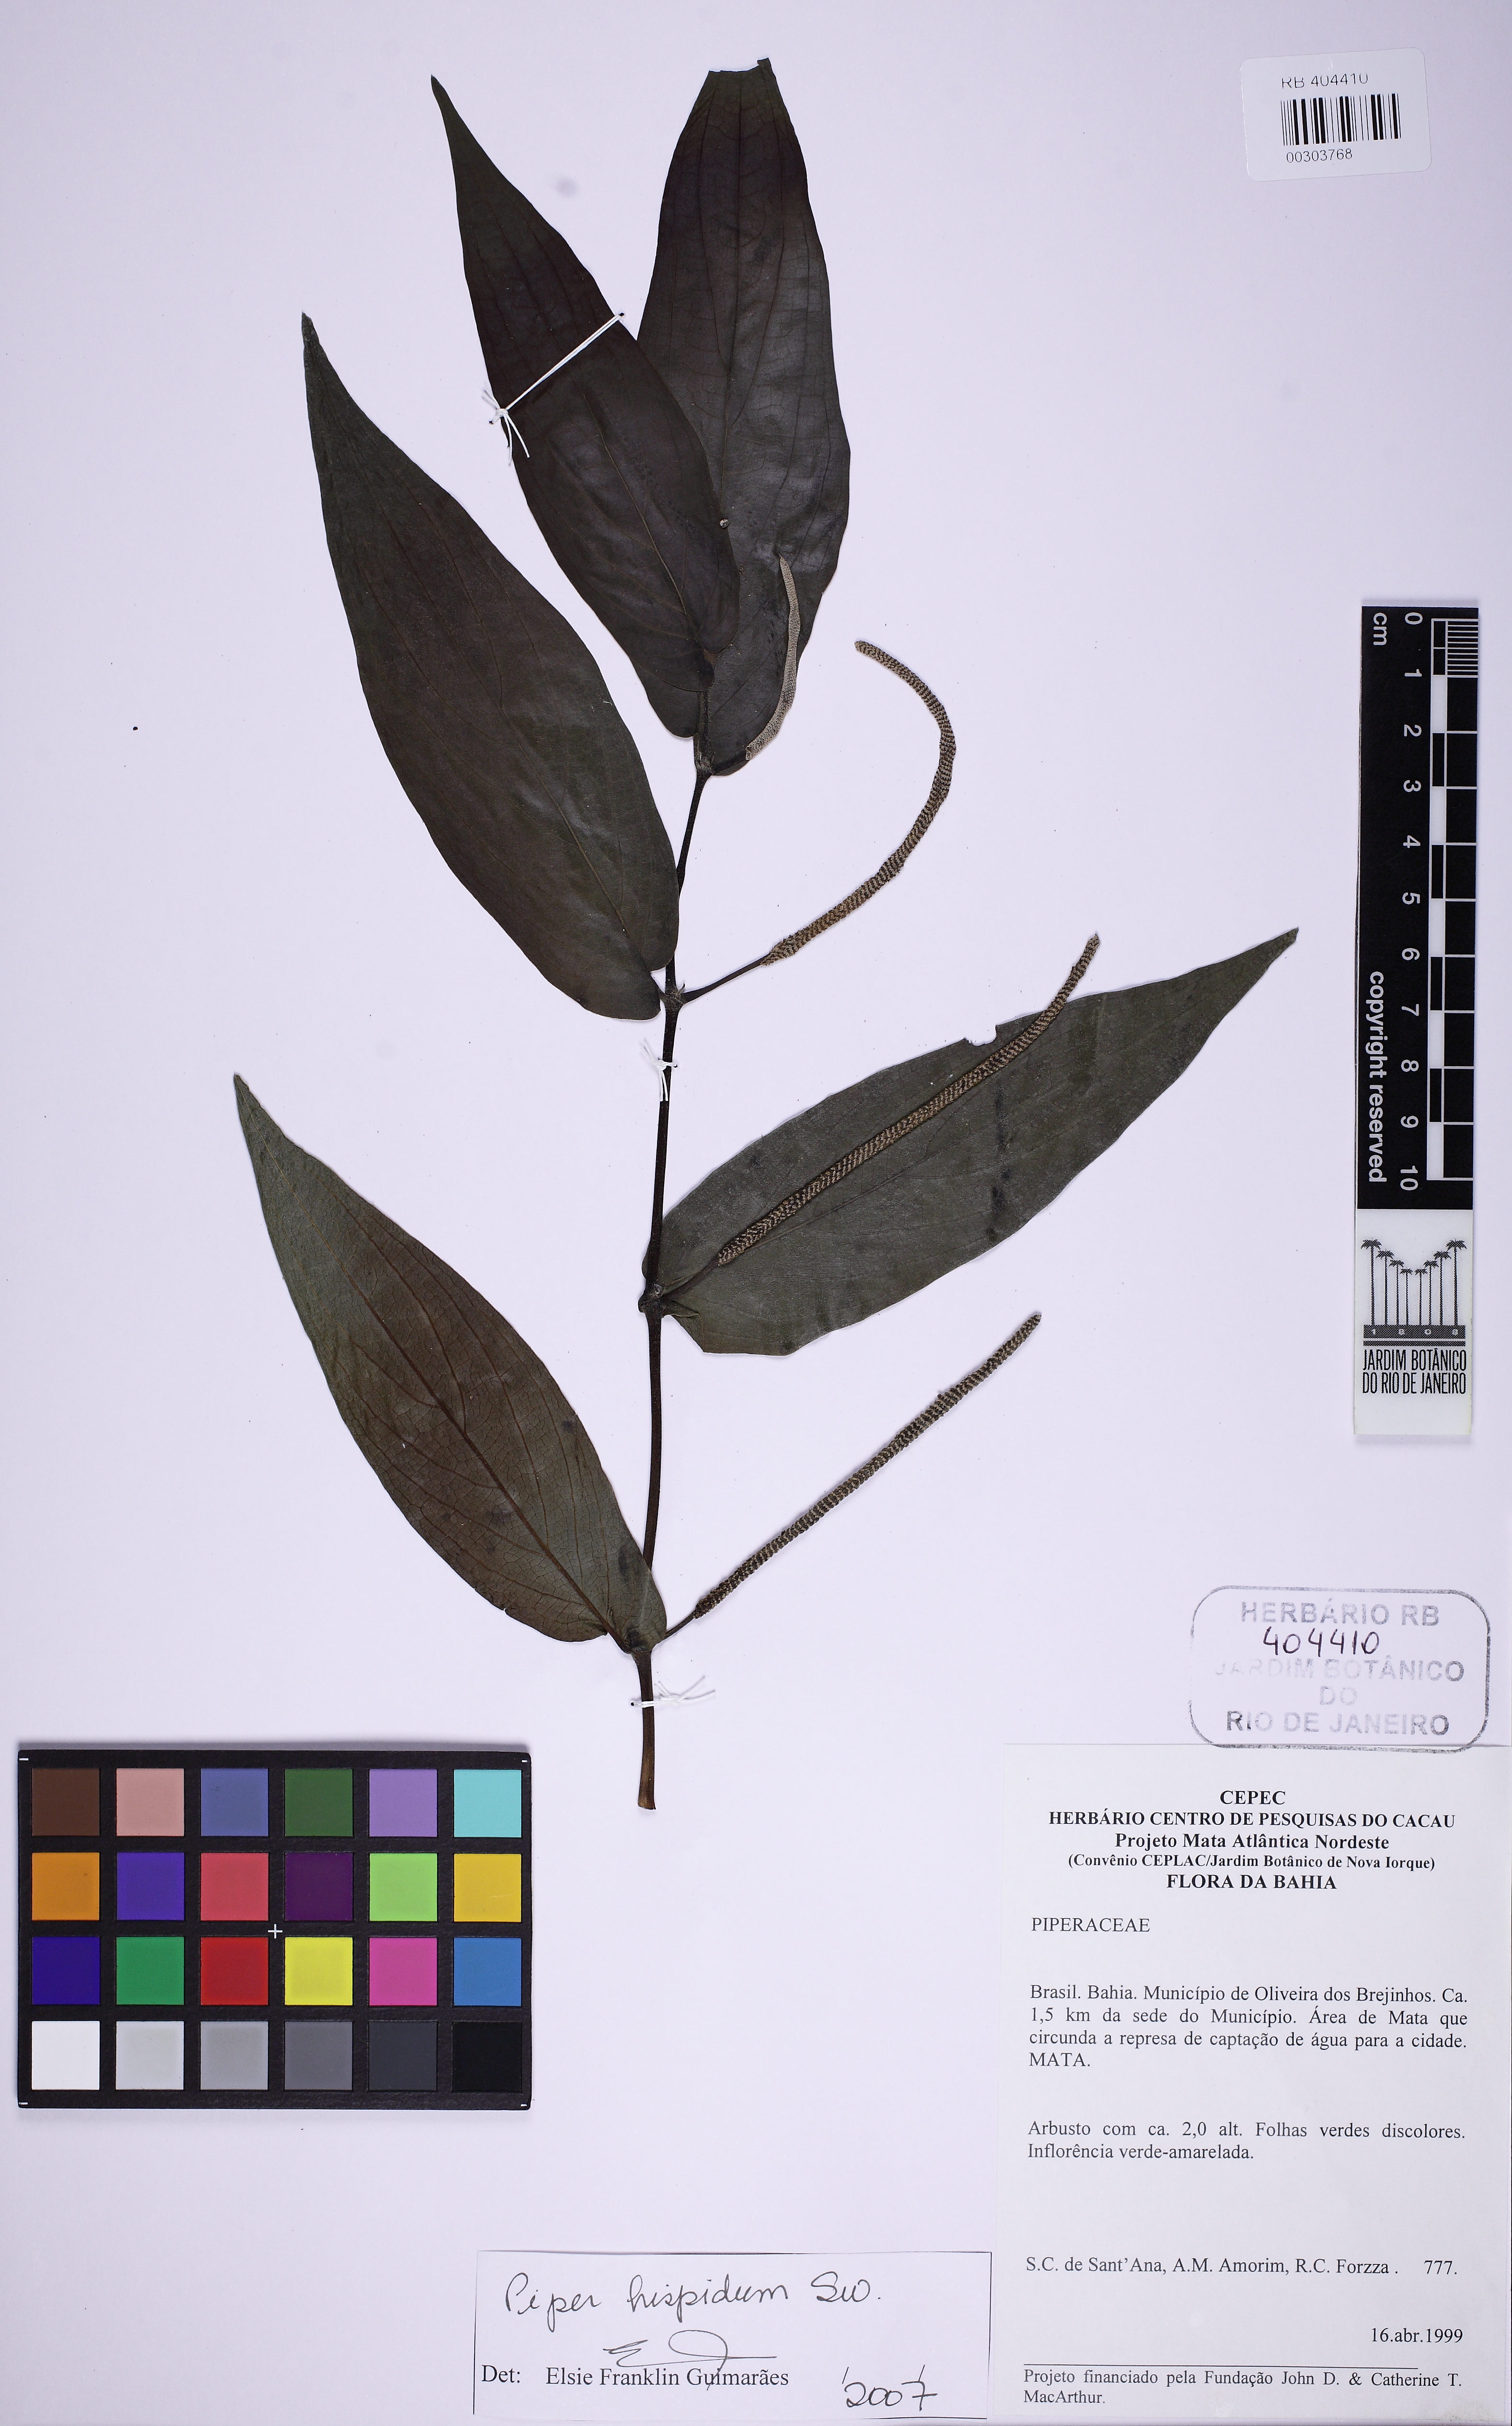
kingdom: Plantae
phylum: Tracheophyta
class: Magnoliopsida
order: Piperales
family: Piperaceae
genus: Piper
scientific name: Piper hispidum
